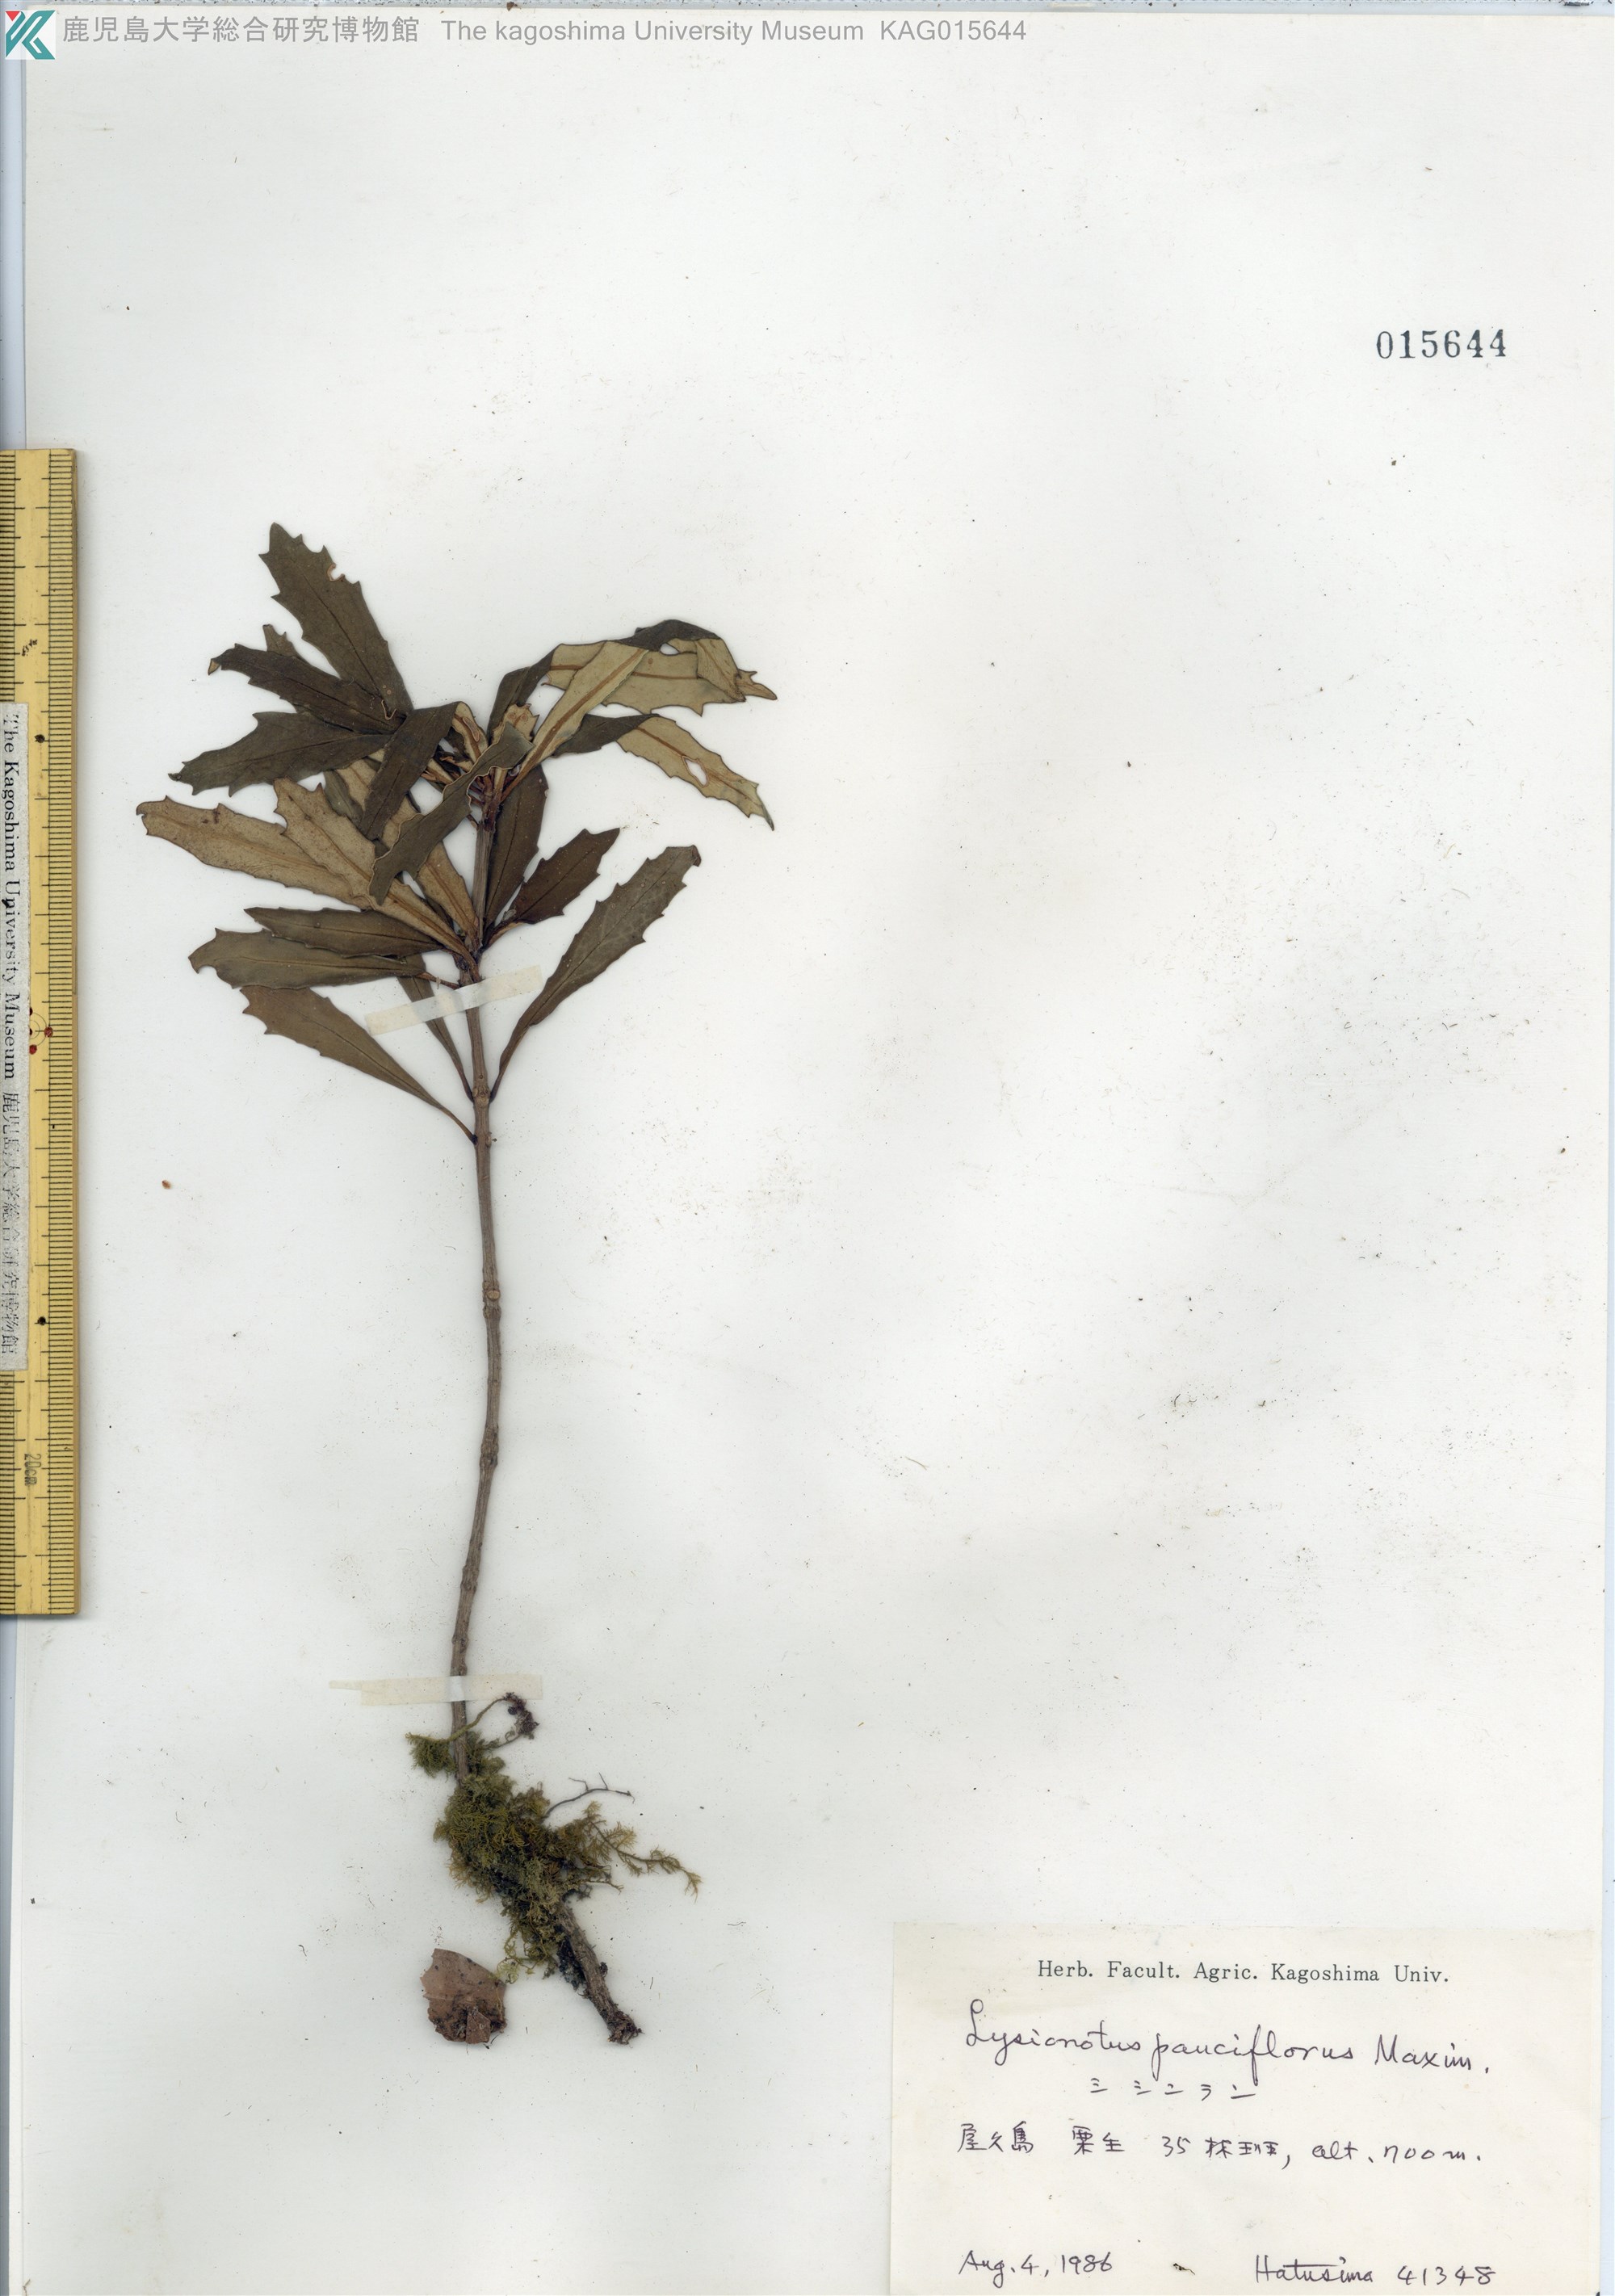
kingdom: Plantae
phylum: Tracheophyta
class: Magnoliopsida
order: Lamiales
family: Gesneriaceae
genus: Lysionotus
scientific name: Lysionotus pauciflorus
